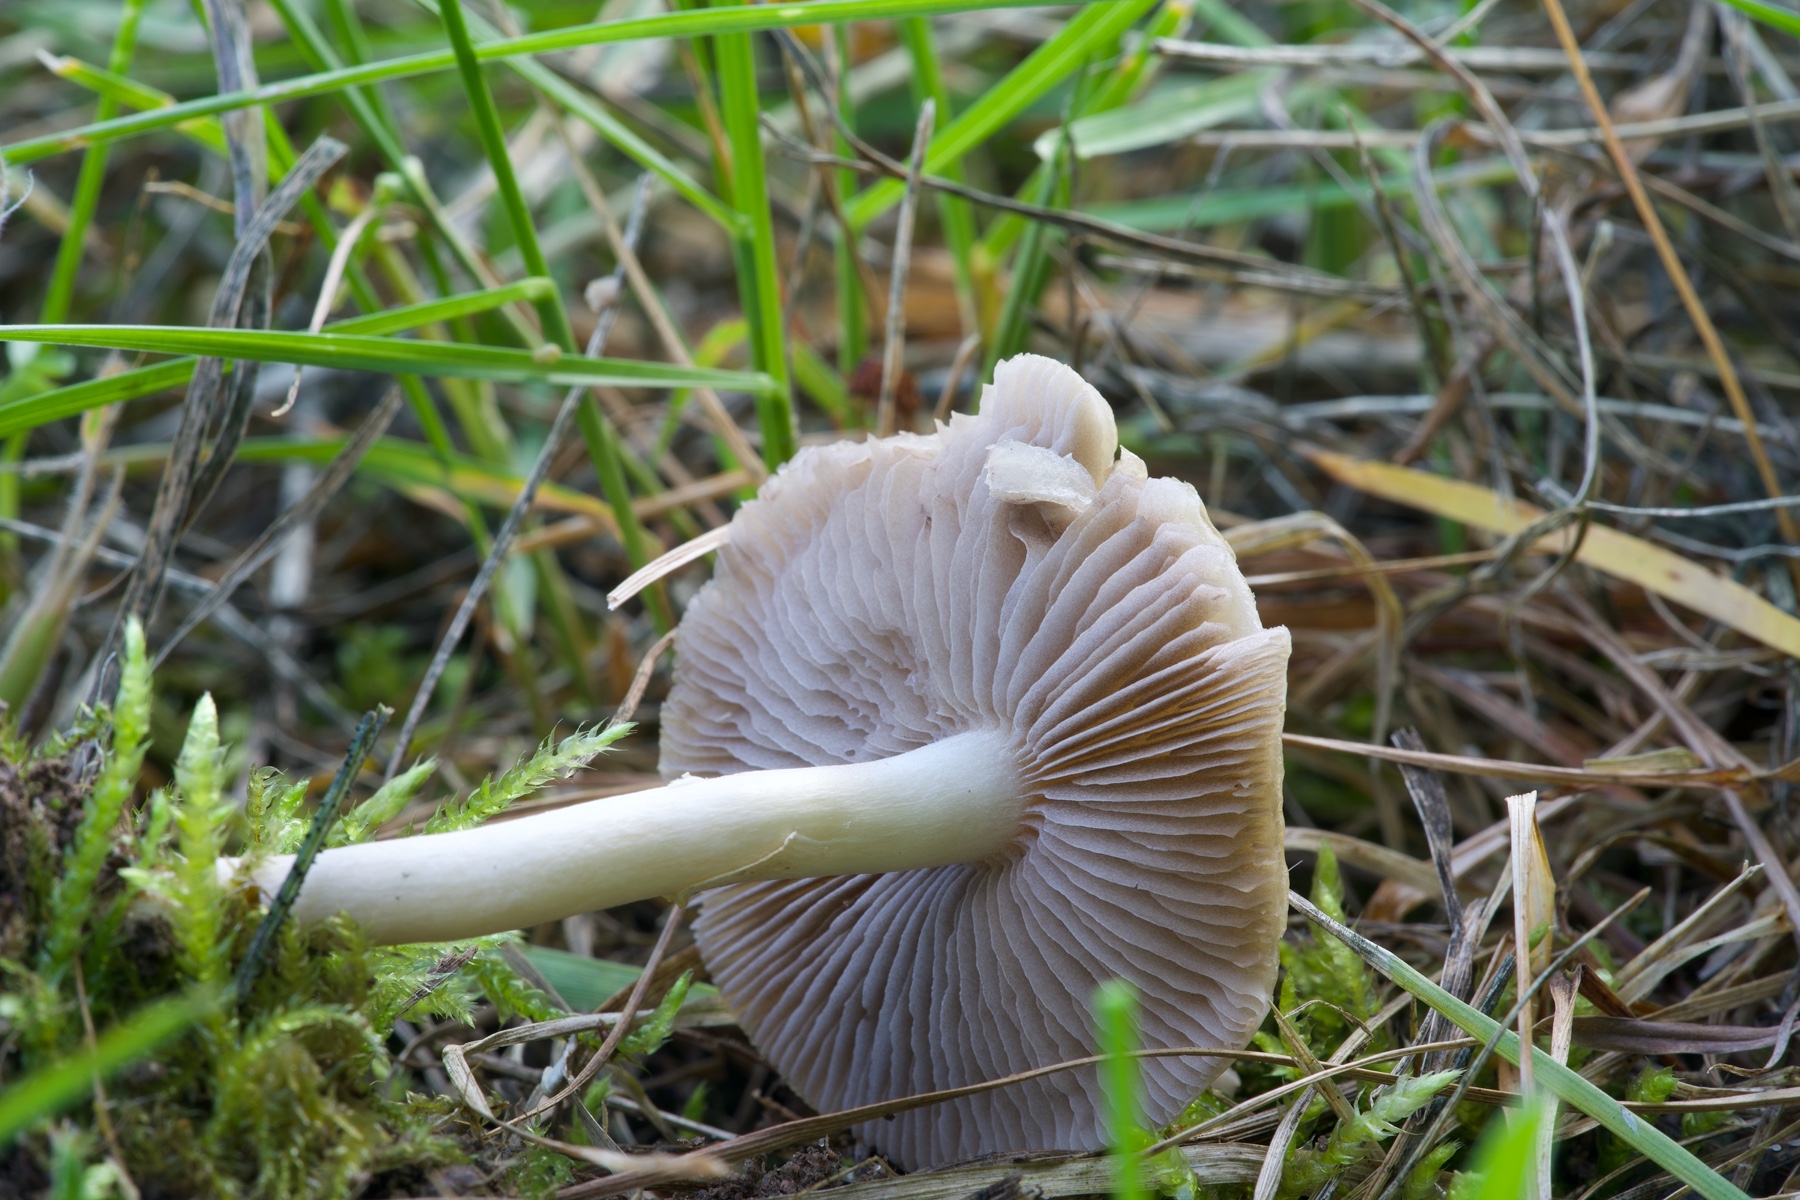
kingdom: Fungi
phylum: Basidiomycota
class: Agaricomycetes
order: Agaricales
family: Strophariaceae
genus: Agrocybe
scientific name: Agrocybe praecox
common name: tidlig agerhat
